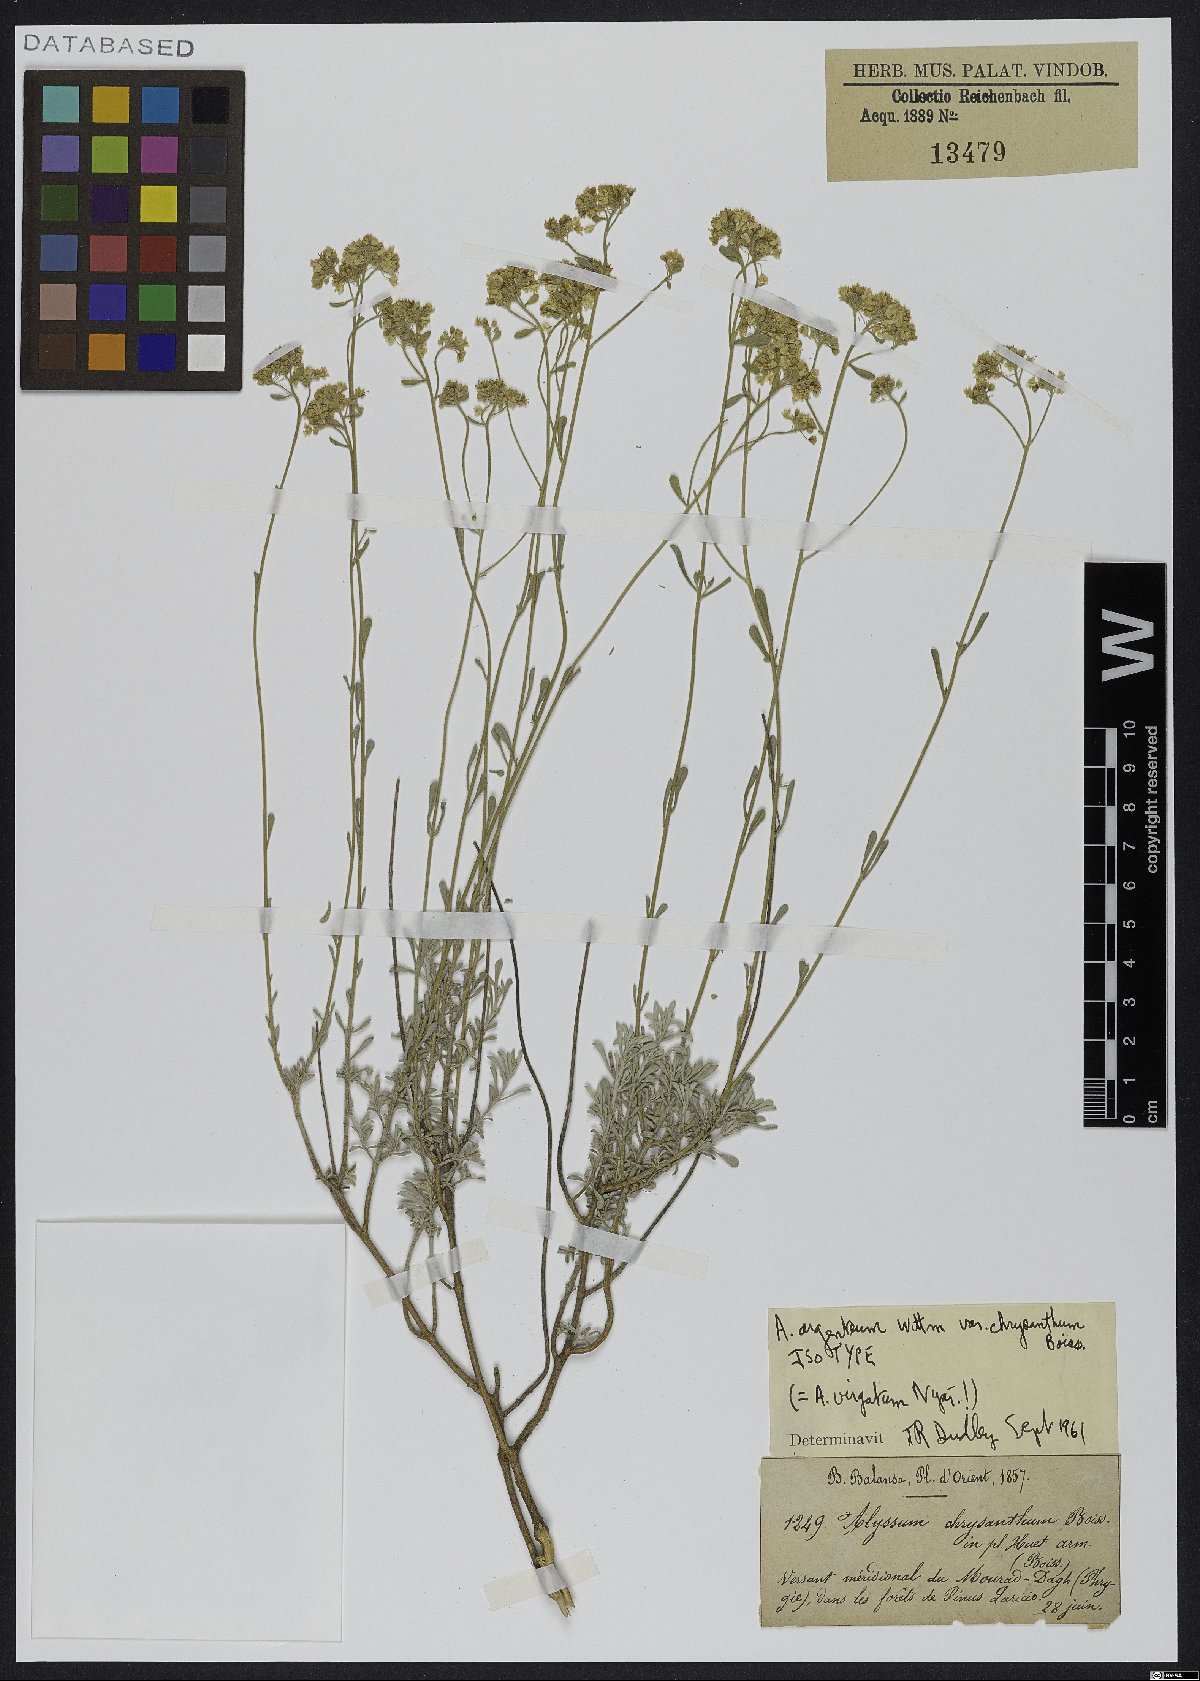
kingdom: Plantae
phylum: Tracheophyta
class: Magnoliopsida
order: Brassicales
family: Brassicaceae
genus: Odontarrhena
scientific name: Odontarrhena virgata
